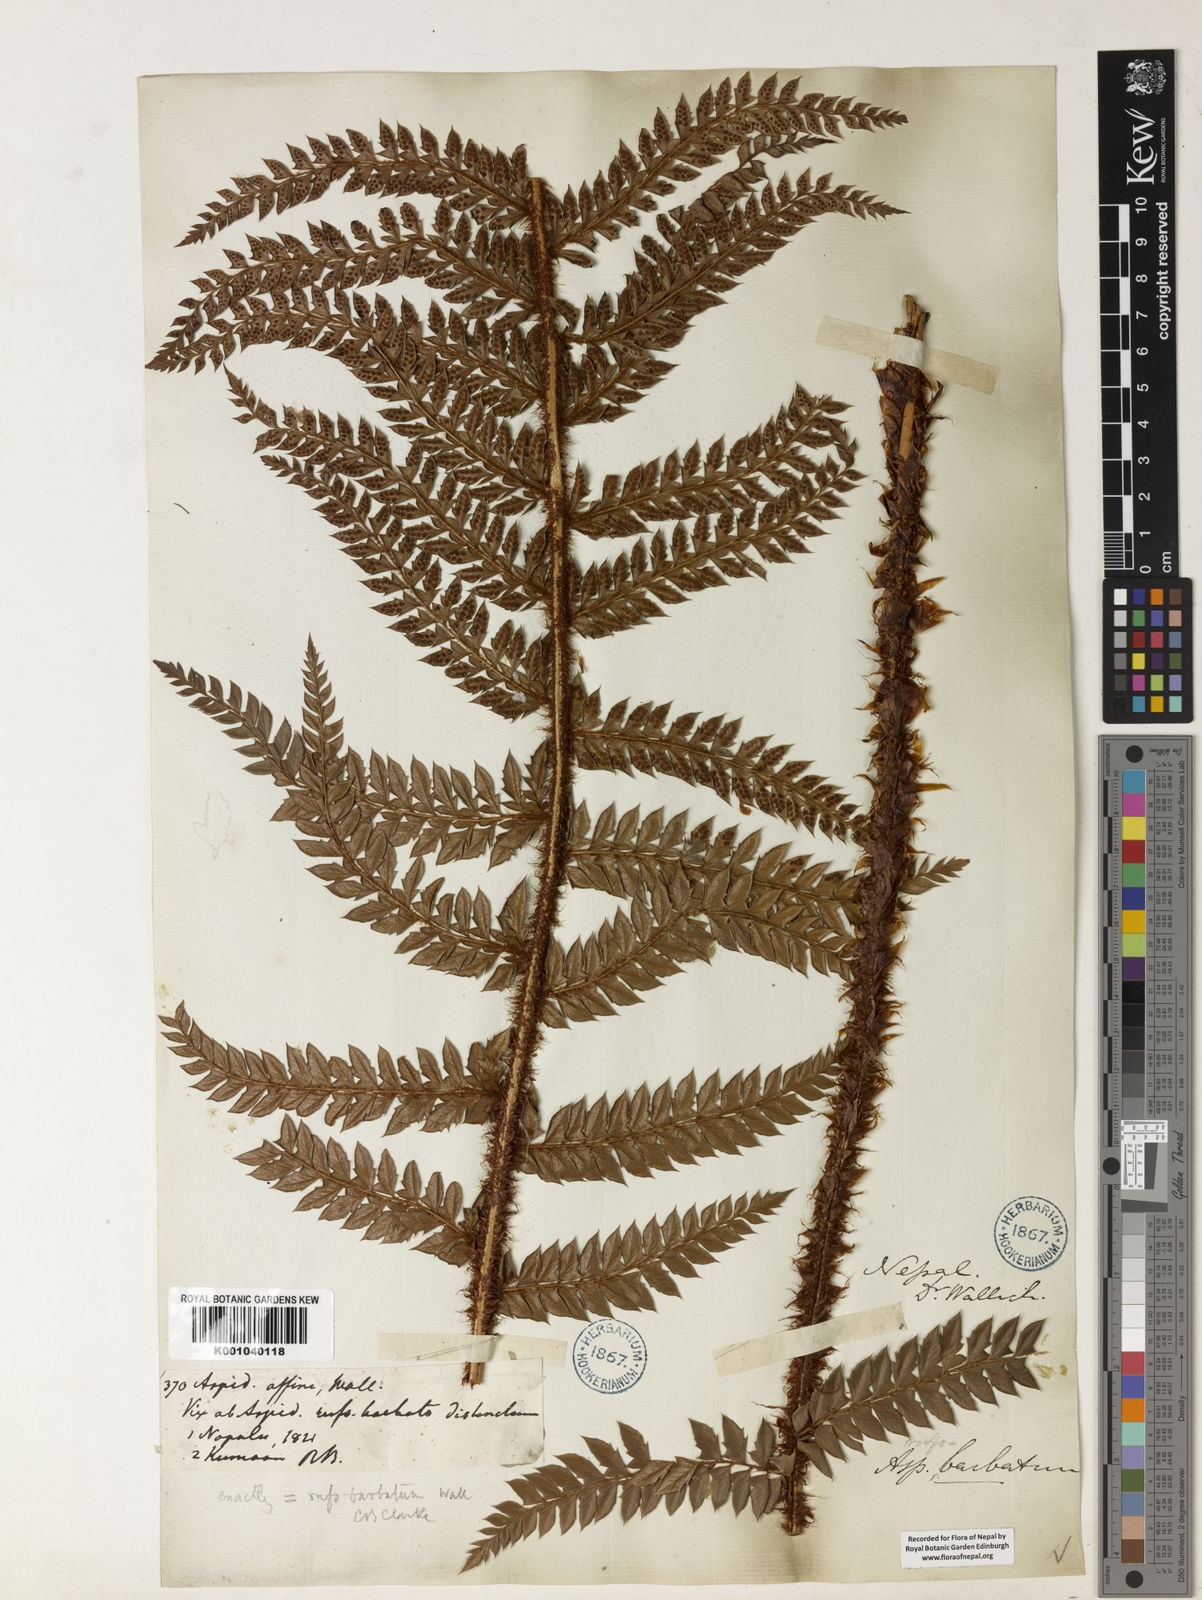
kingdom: Plantae
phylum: Tracheophyta
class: Polypodiopsida
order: Polypodiales
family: Dryopteridaceae
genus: Polystichum
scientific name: Polystichum
